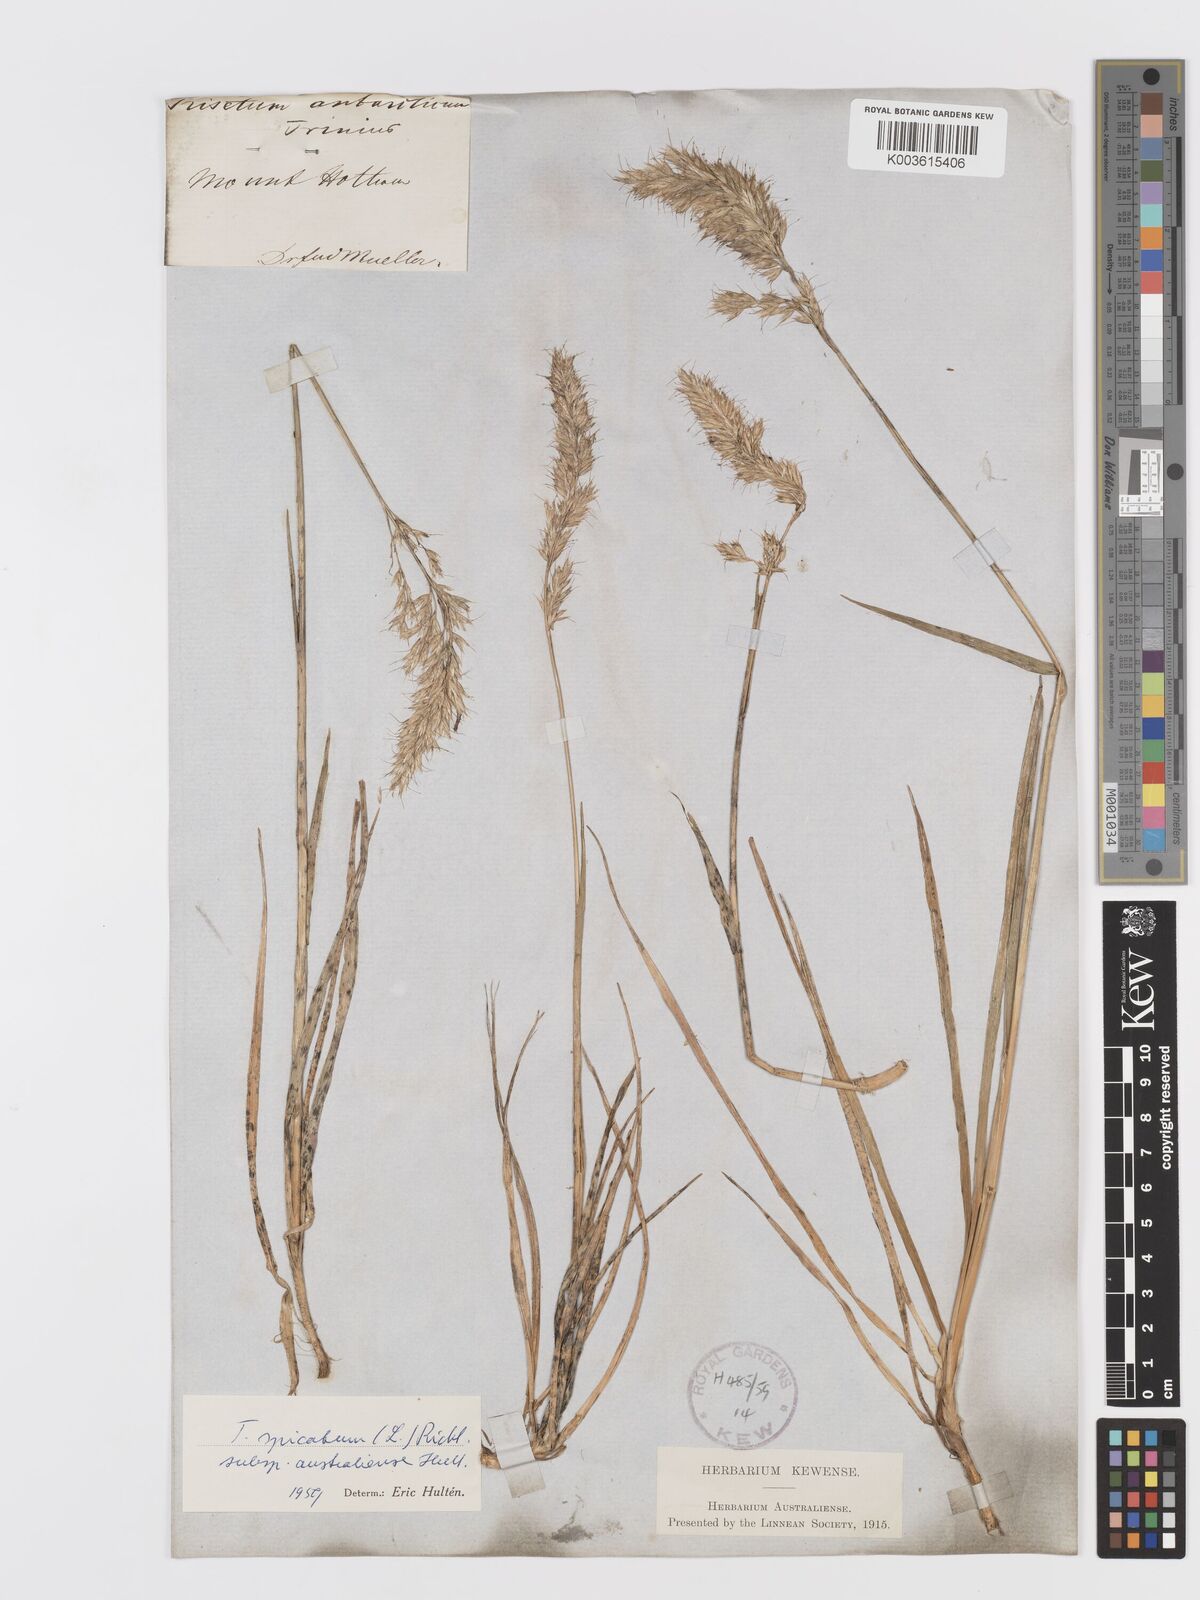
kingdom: Plantae
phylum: Tracheophyta
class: Liliopsida
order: Poales
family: Poaceae
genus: Koeleria
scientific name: Koeleria spicata
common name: Mountain trisetum
